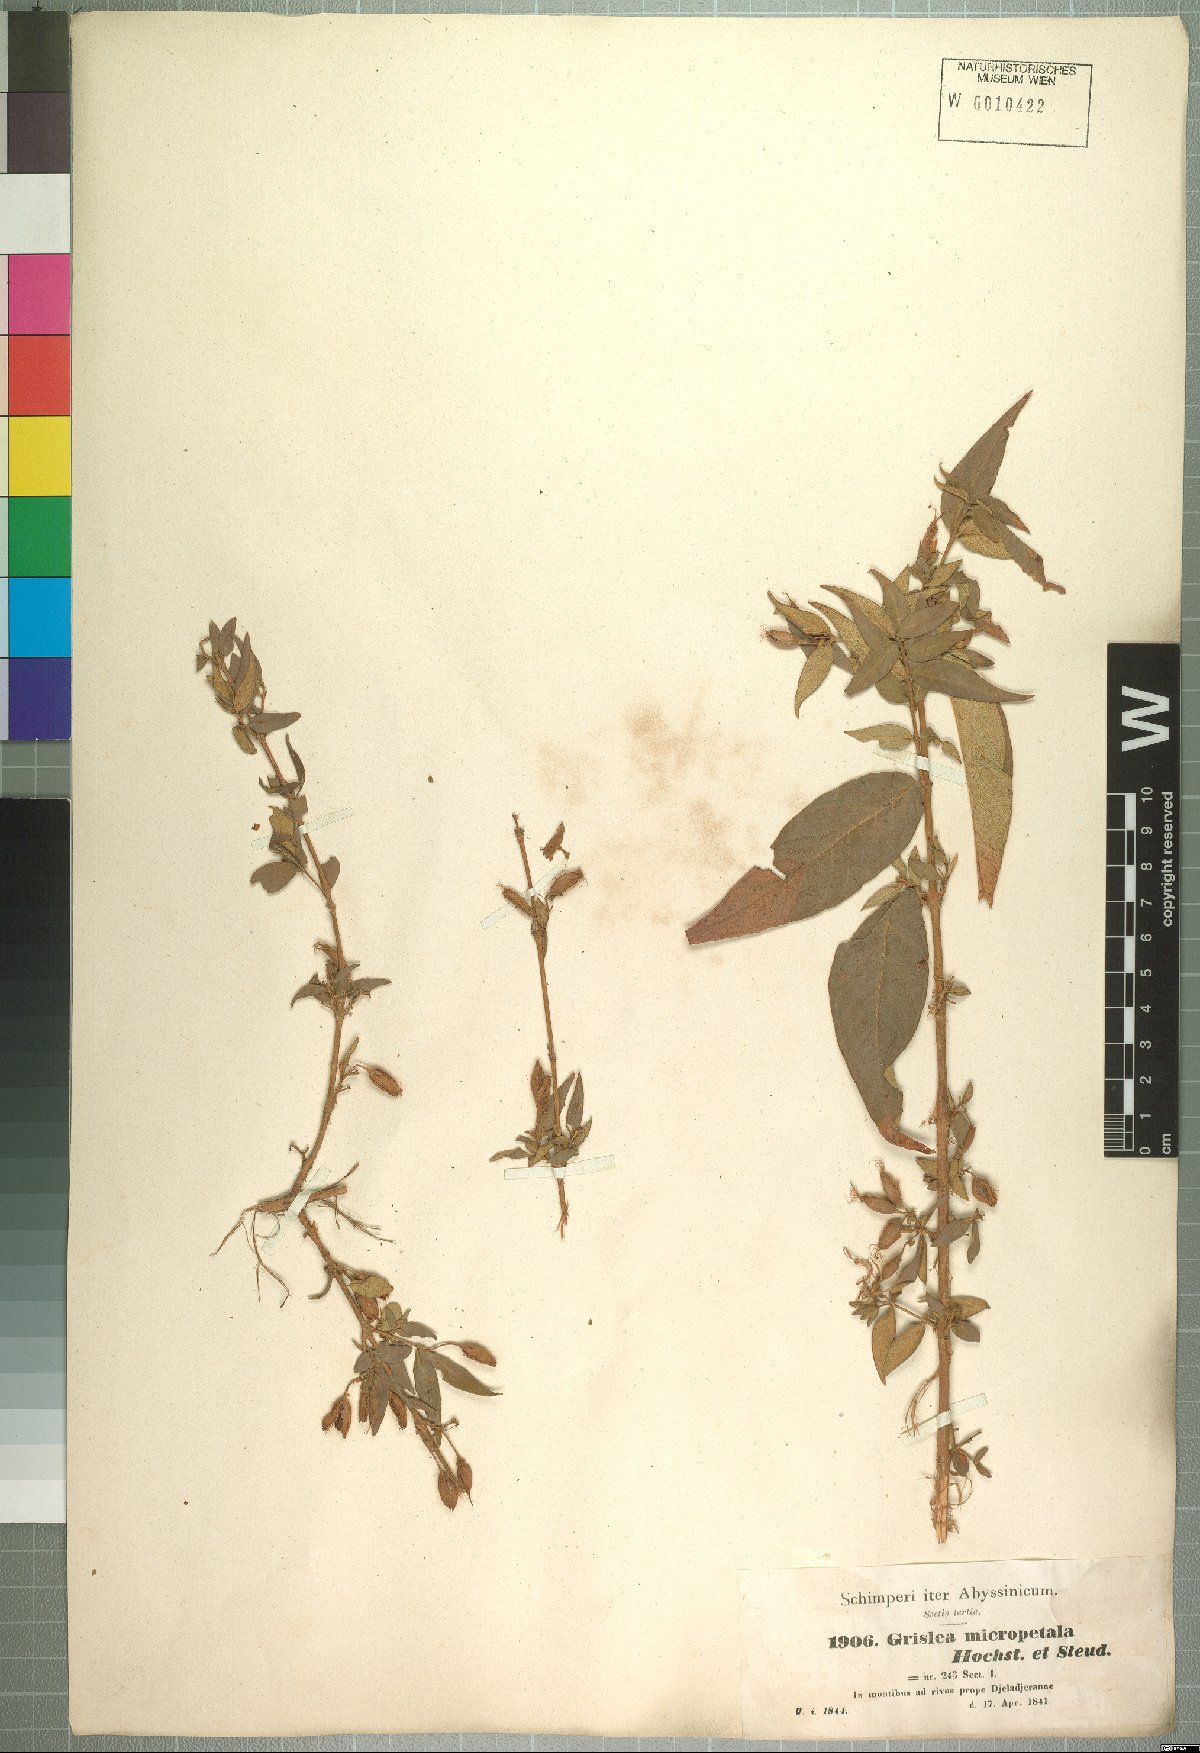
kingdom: Plantae
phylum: Tracheophyta
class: Magnoliopsida
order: Myrtales
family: Lythraceae
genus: Woodfordia
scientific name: Woodfordia uniflora
